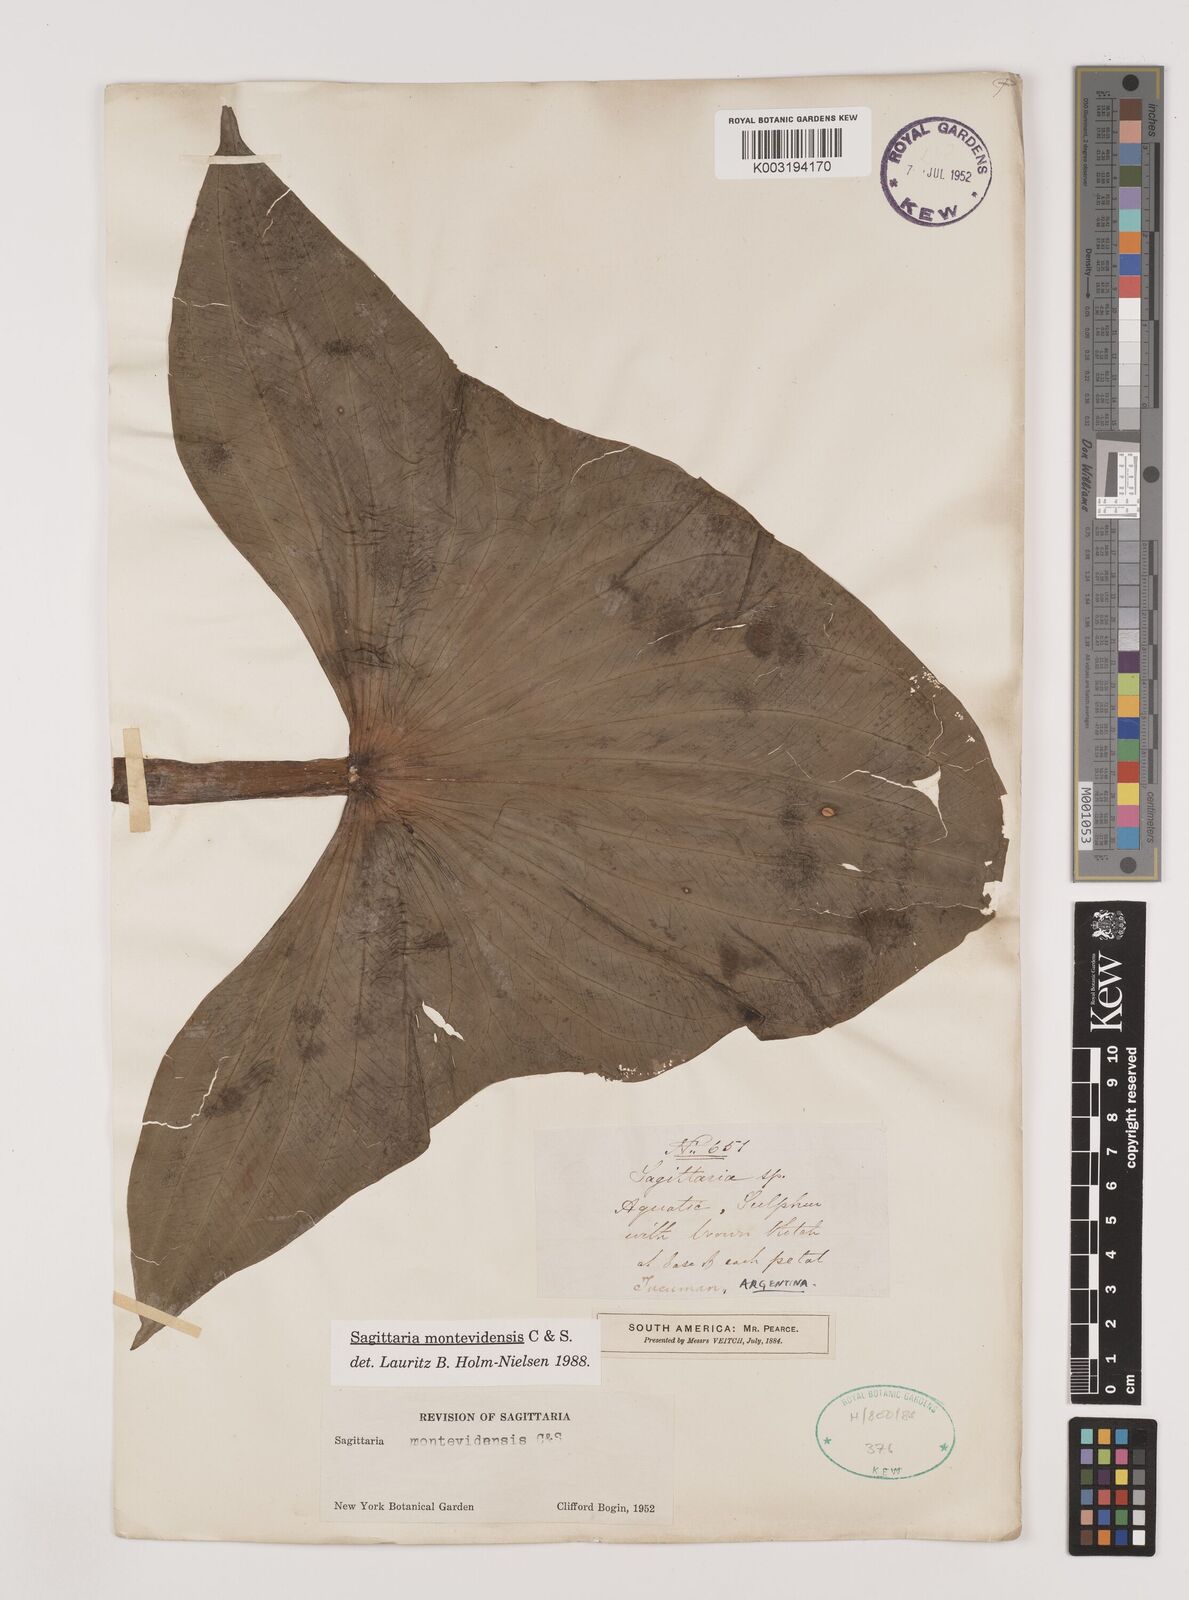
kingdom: Plantae
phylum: Tracheophyta
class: Liliopsida
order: Alismatales
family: Alismataceae
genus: Sagittaria
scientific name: Sagittaria montevidensis
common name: Giant arrowhead
